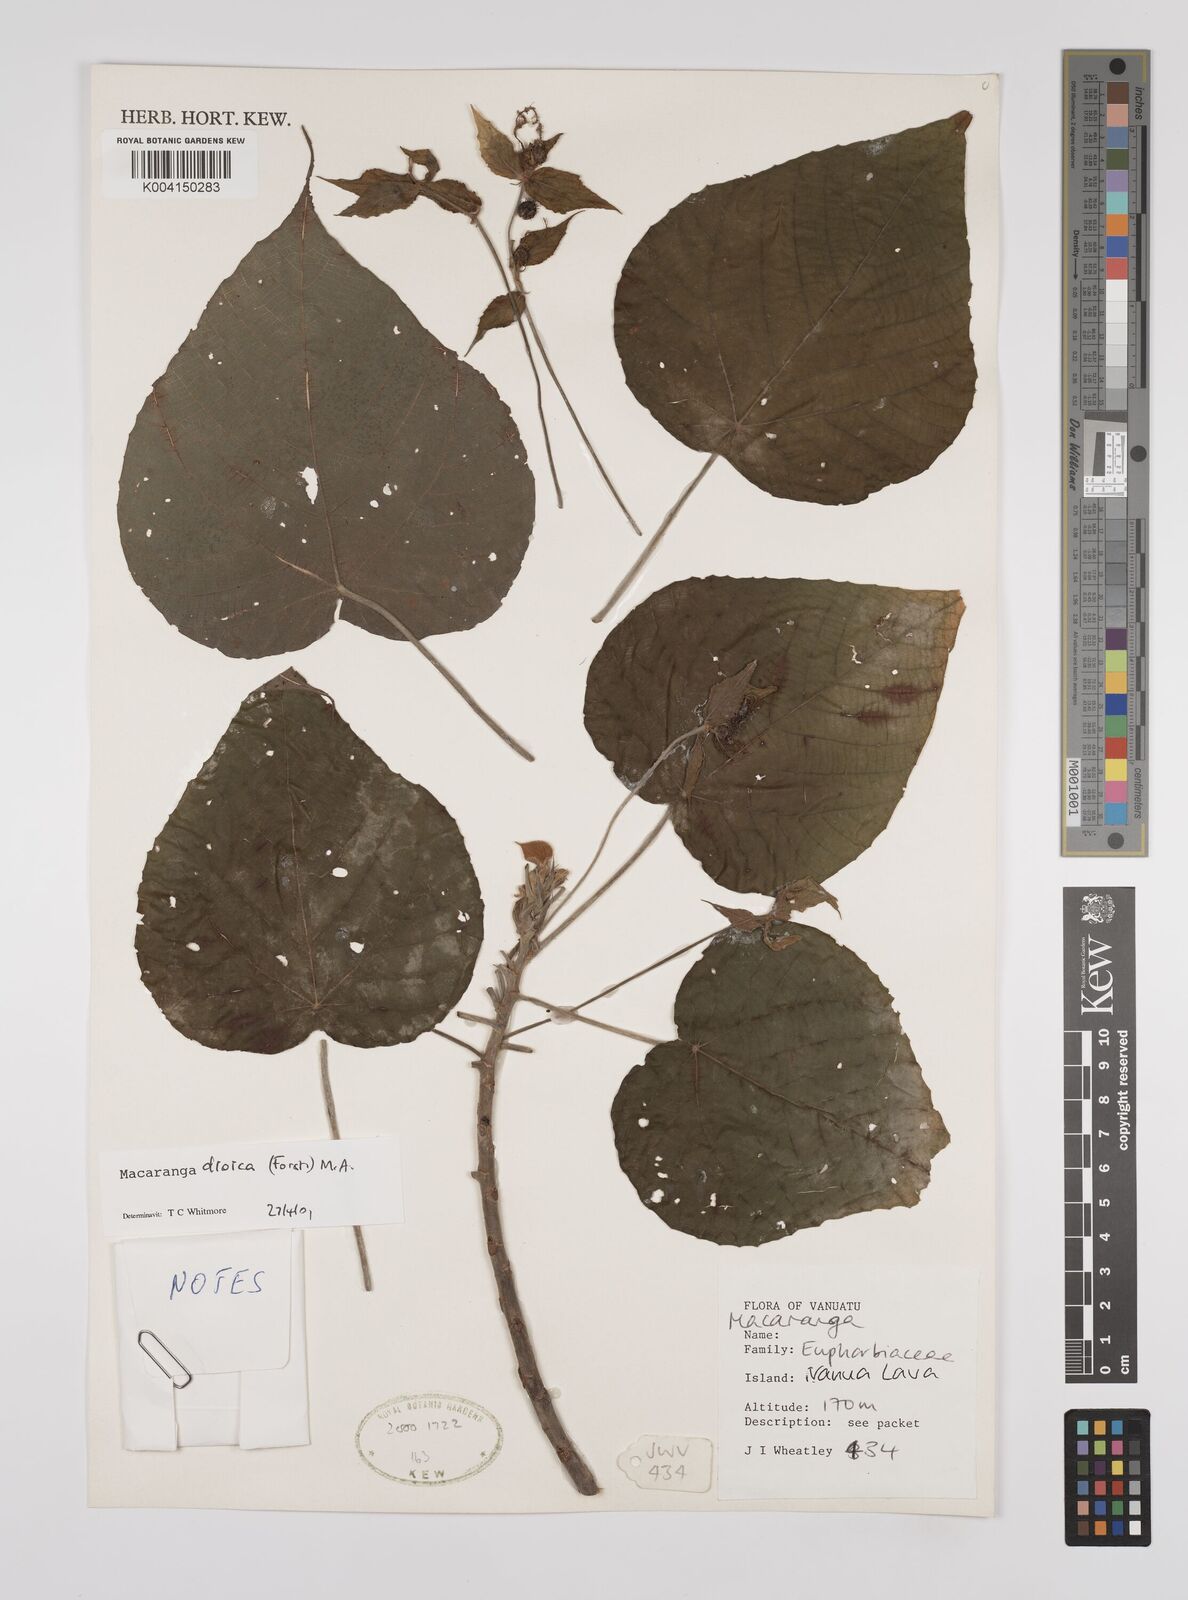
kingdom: Plantae
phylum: Tracheophyta
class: Magnoliopsida
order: Malpighiales
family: Euphorbiaceae
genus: Macaranga
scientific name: Macaranga dioica
